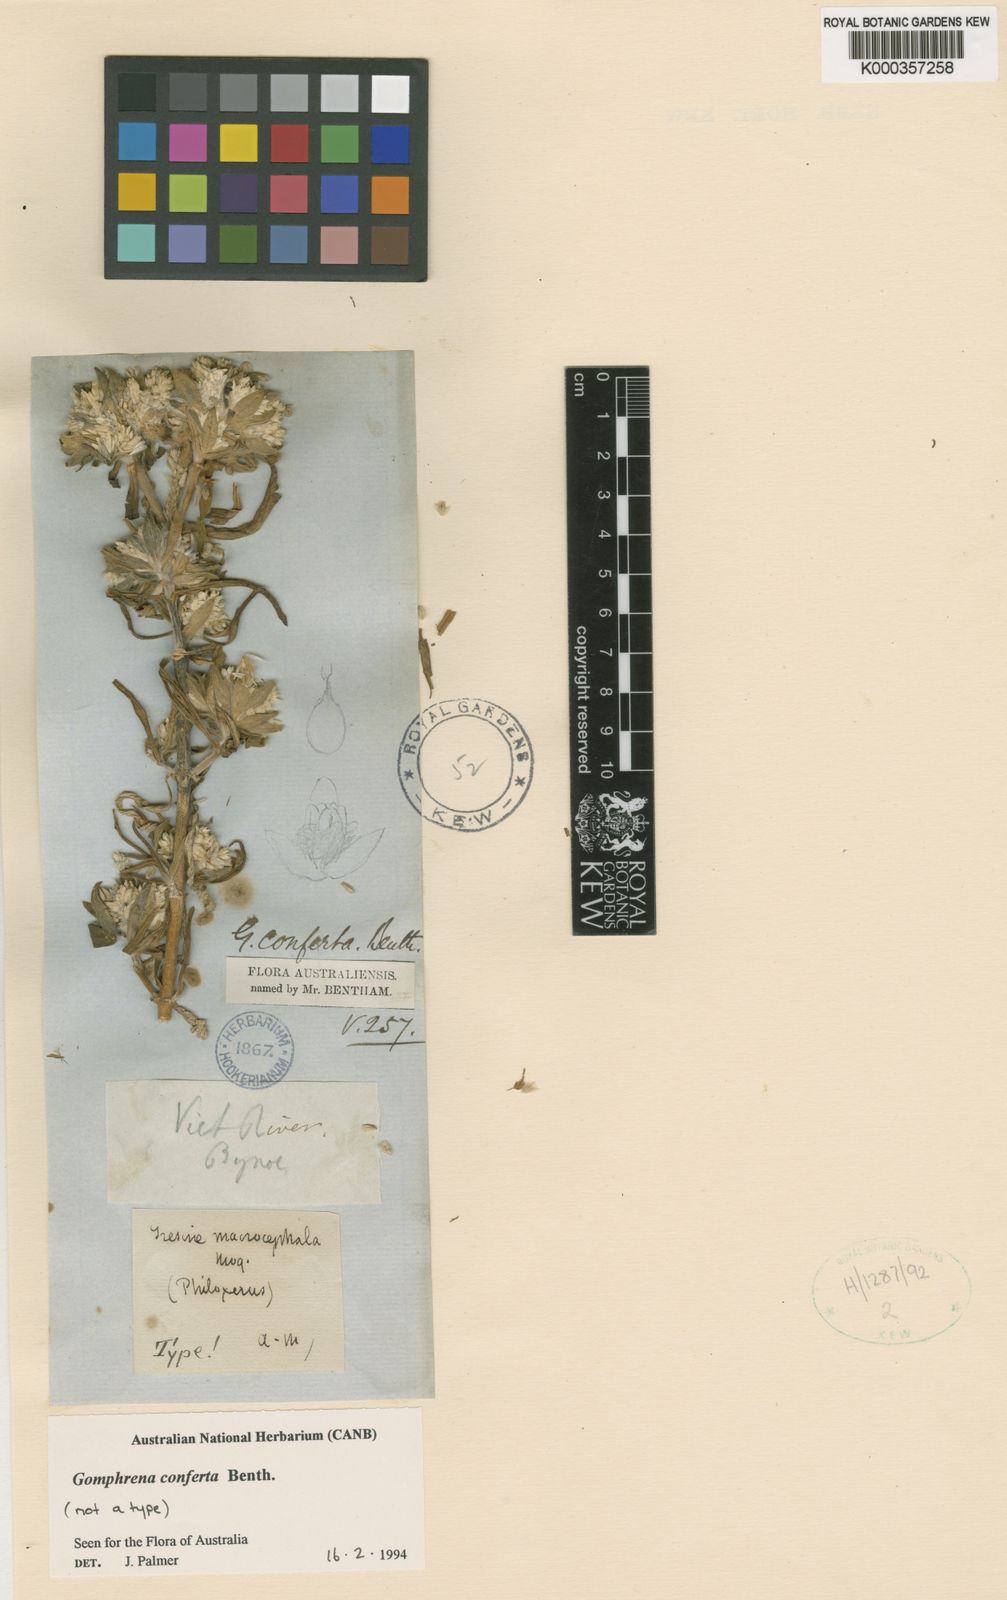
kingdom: Plantae
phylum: Tracheophyta
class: Magnoliopsida
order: Caryophyllales
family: Amaranthaceae
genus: Gomphrena
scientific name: Gomphrena conferta
